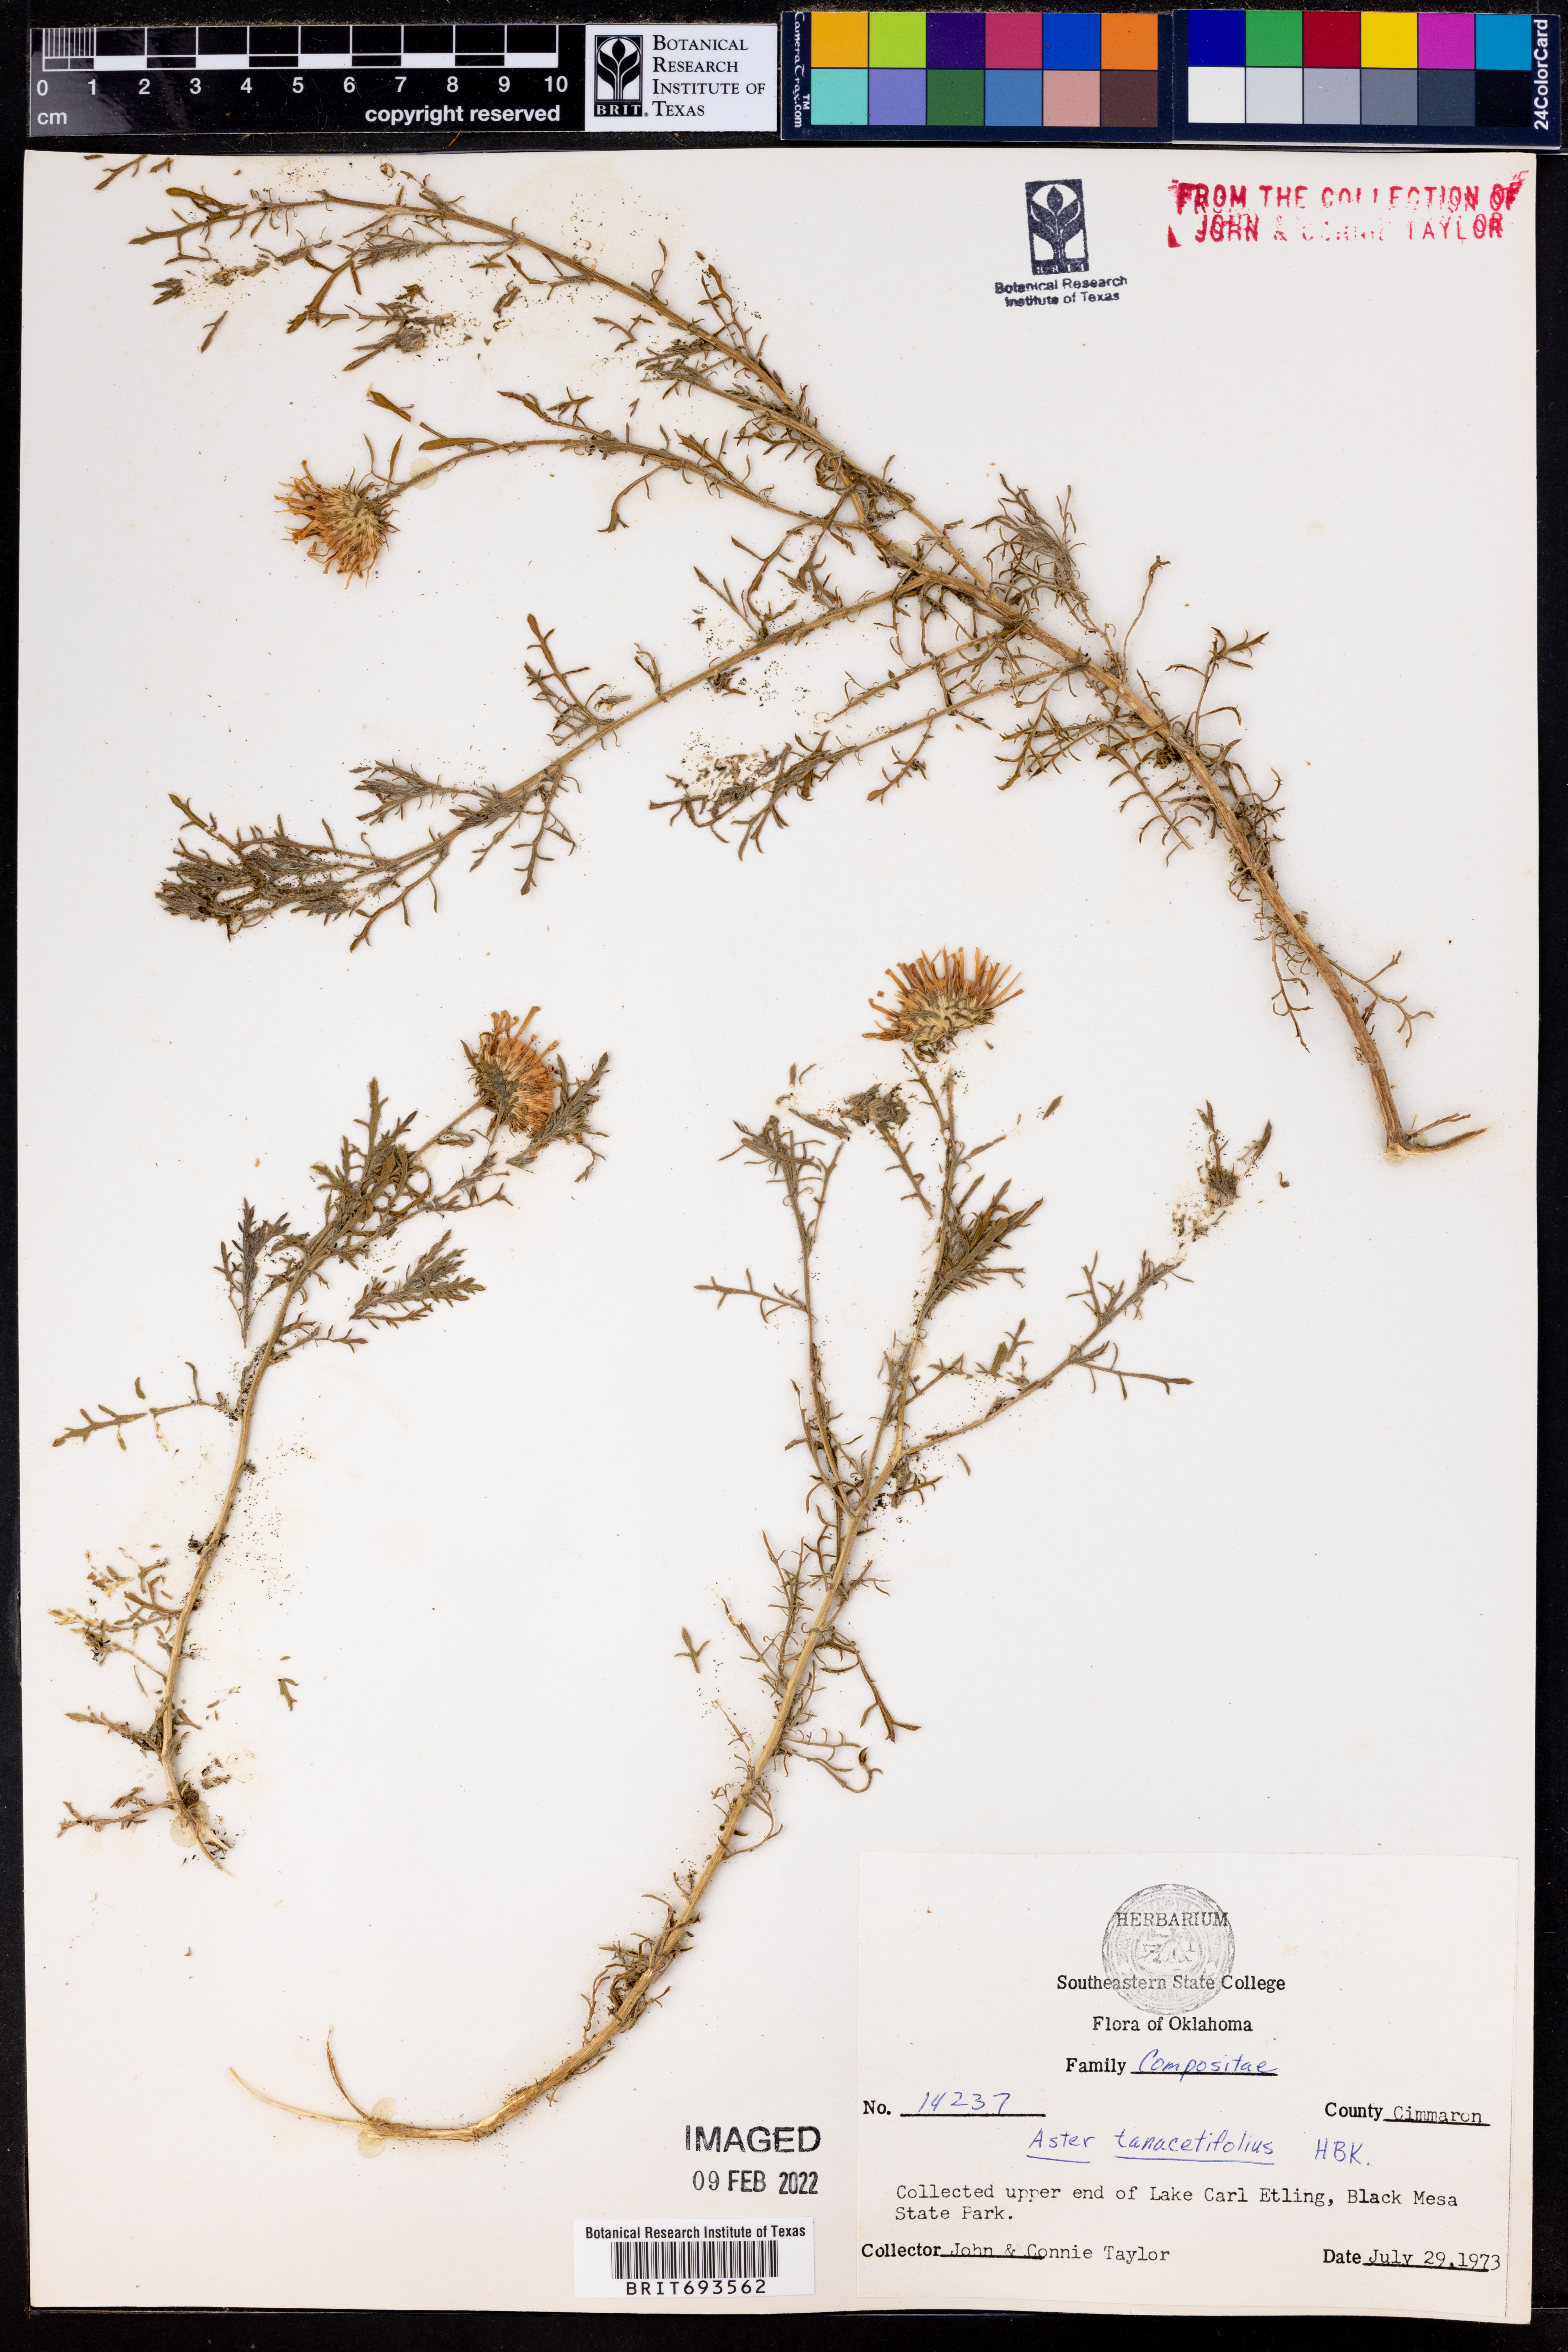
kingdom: Plantae
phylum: Tracheophyta
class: Magnoliopsida
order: Asterales
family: Asteraceae
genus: Machaeranthera
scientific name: Machaeranthera tanacetifolia
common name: Tansy-aster
